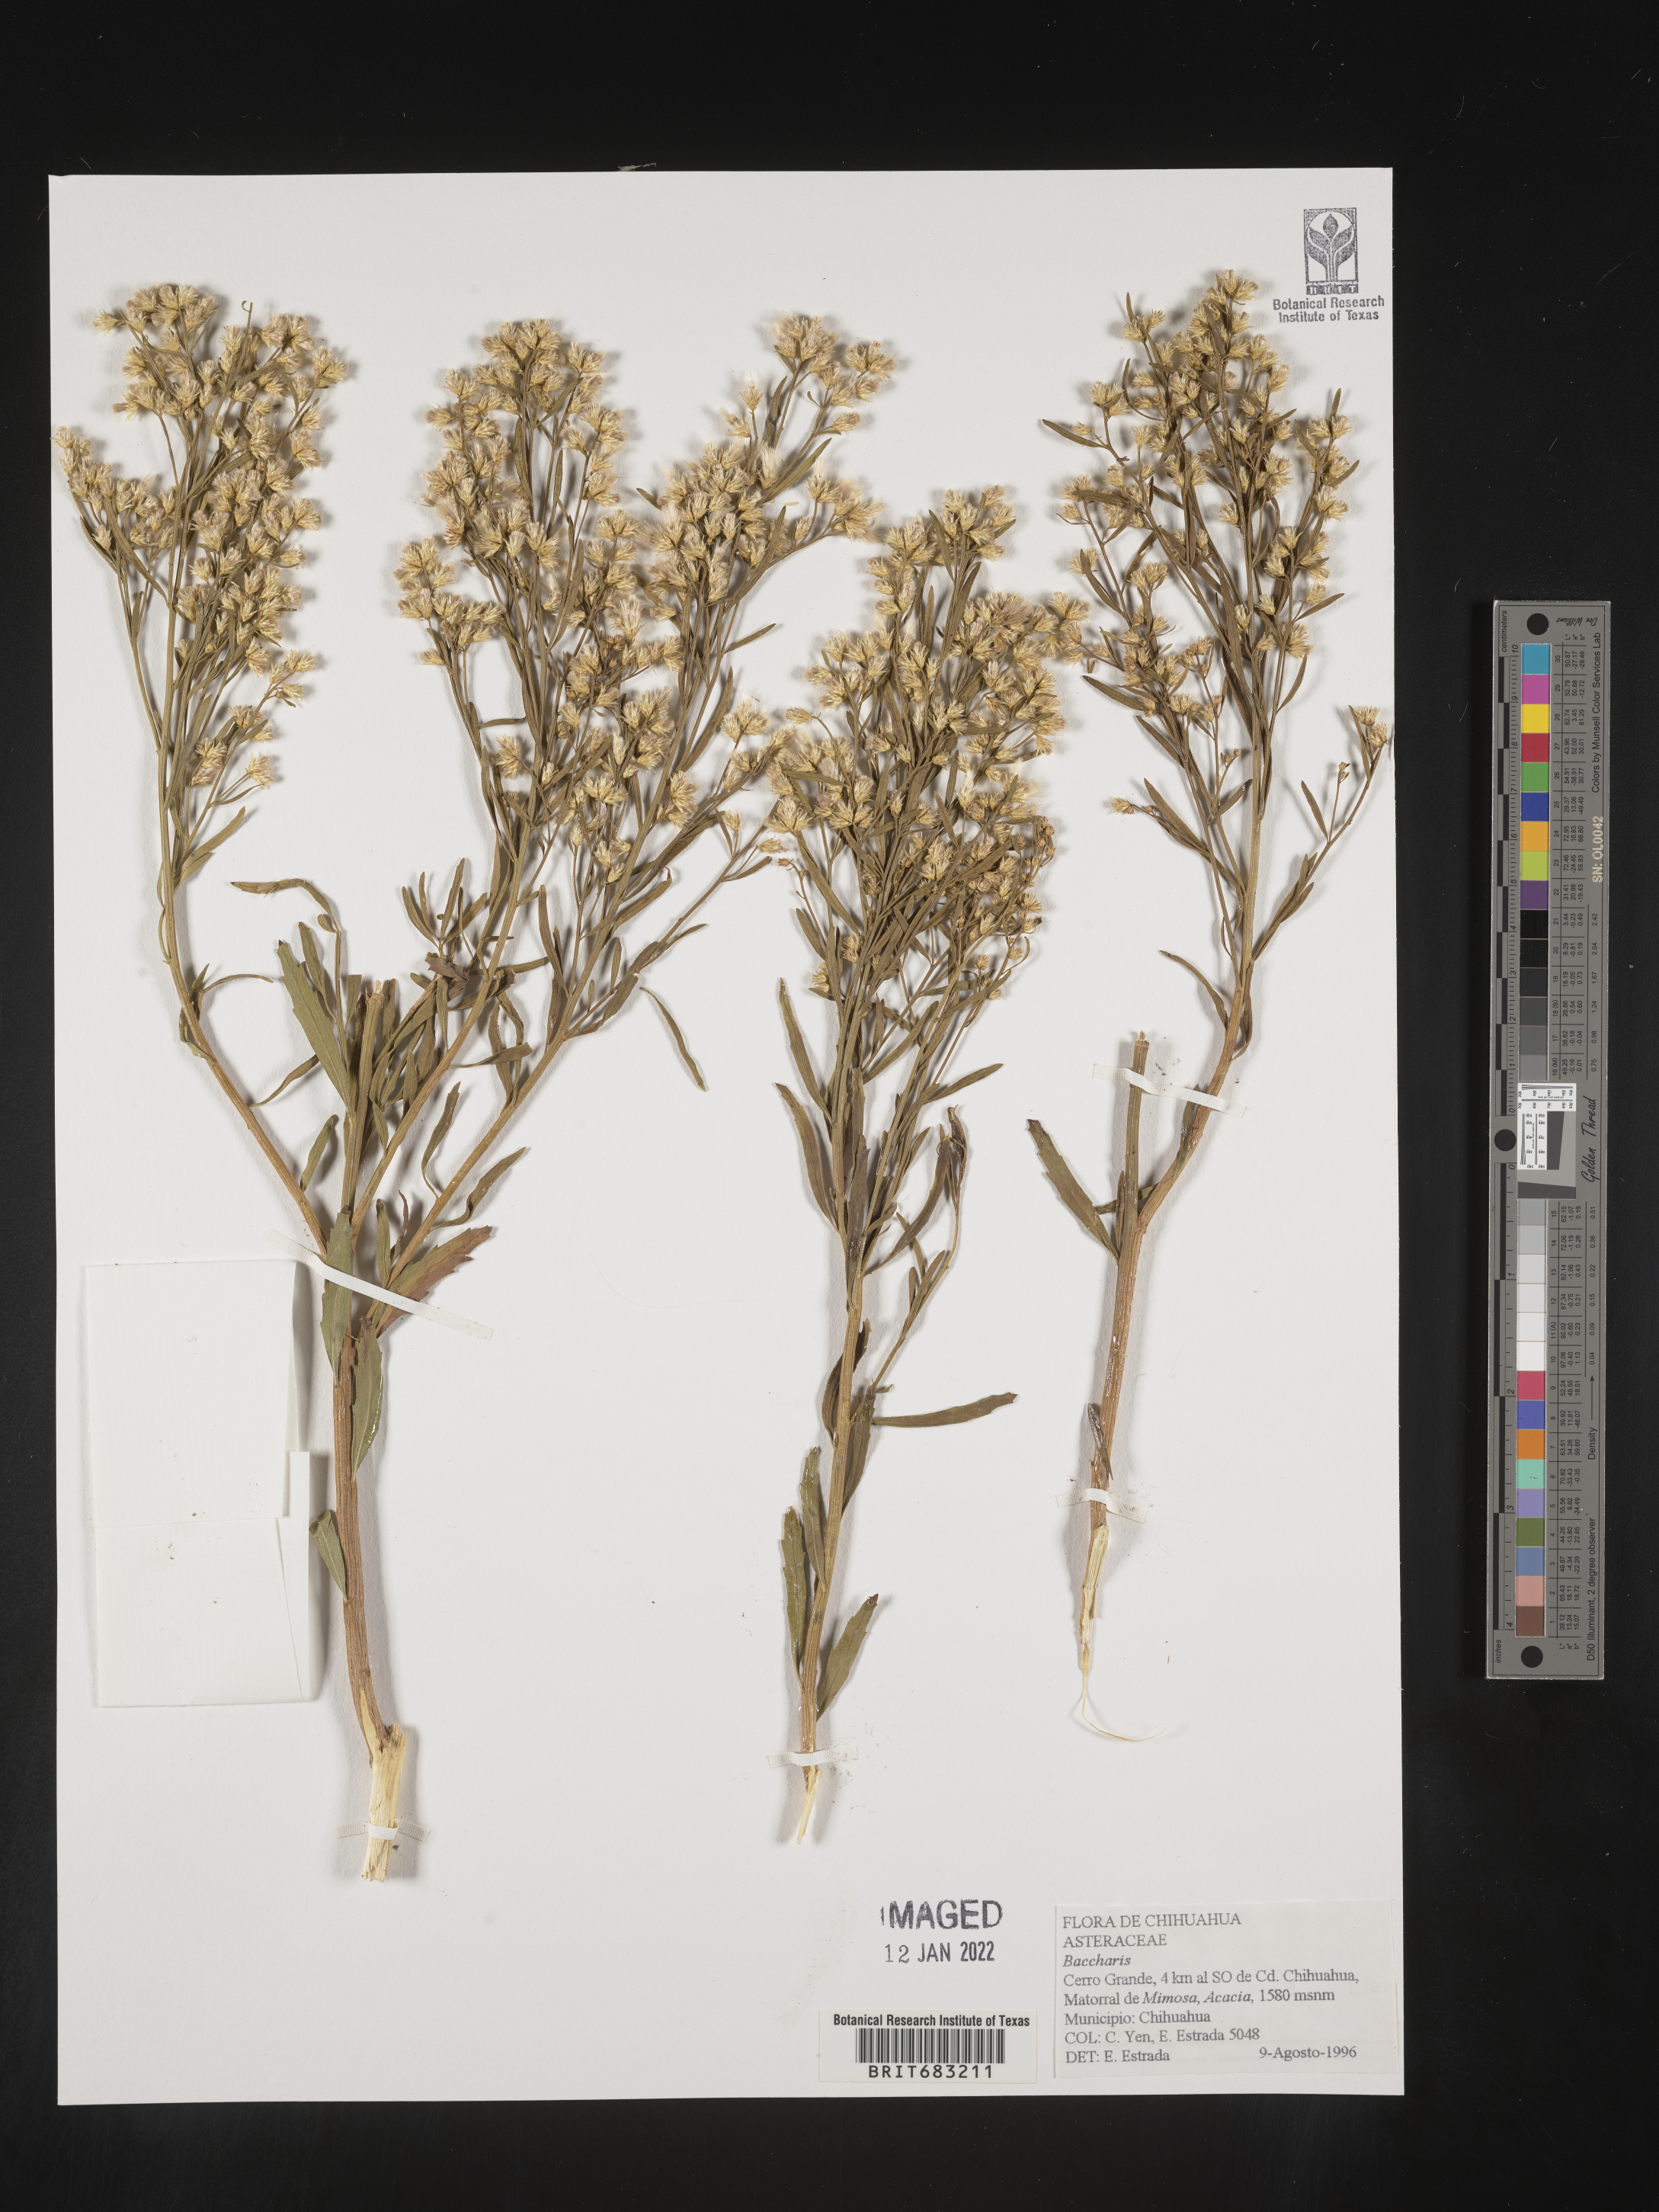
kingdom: Plantae
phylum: Tracheophyta
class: Magnoliopsida
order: Asterales
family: Asteraceae
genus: Baccharis
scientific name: Baccharis salicina
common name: Willow baccharis
